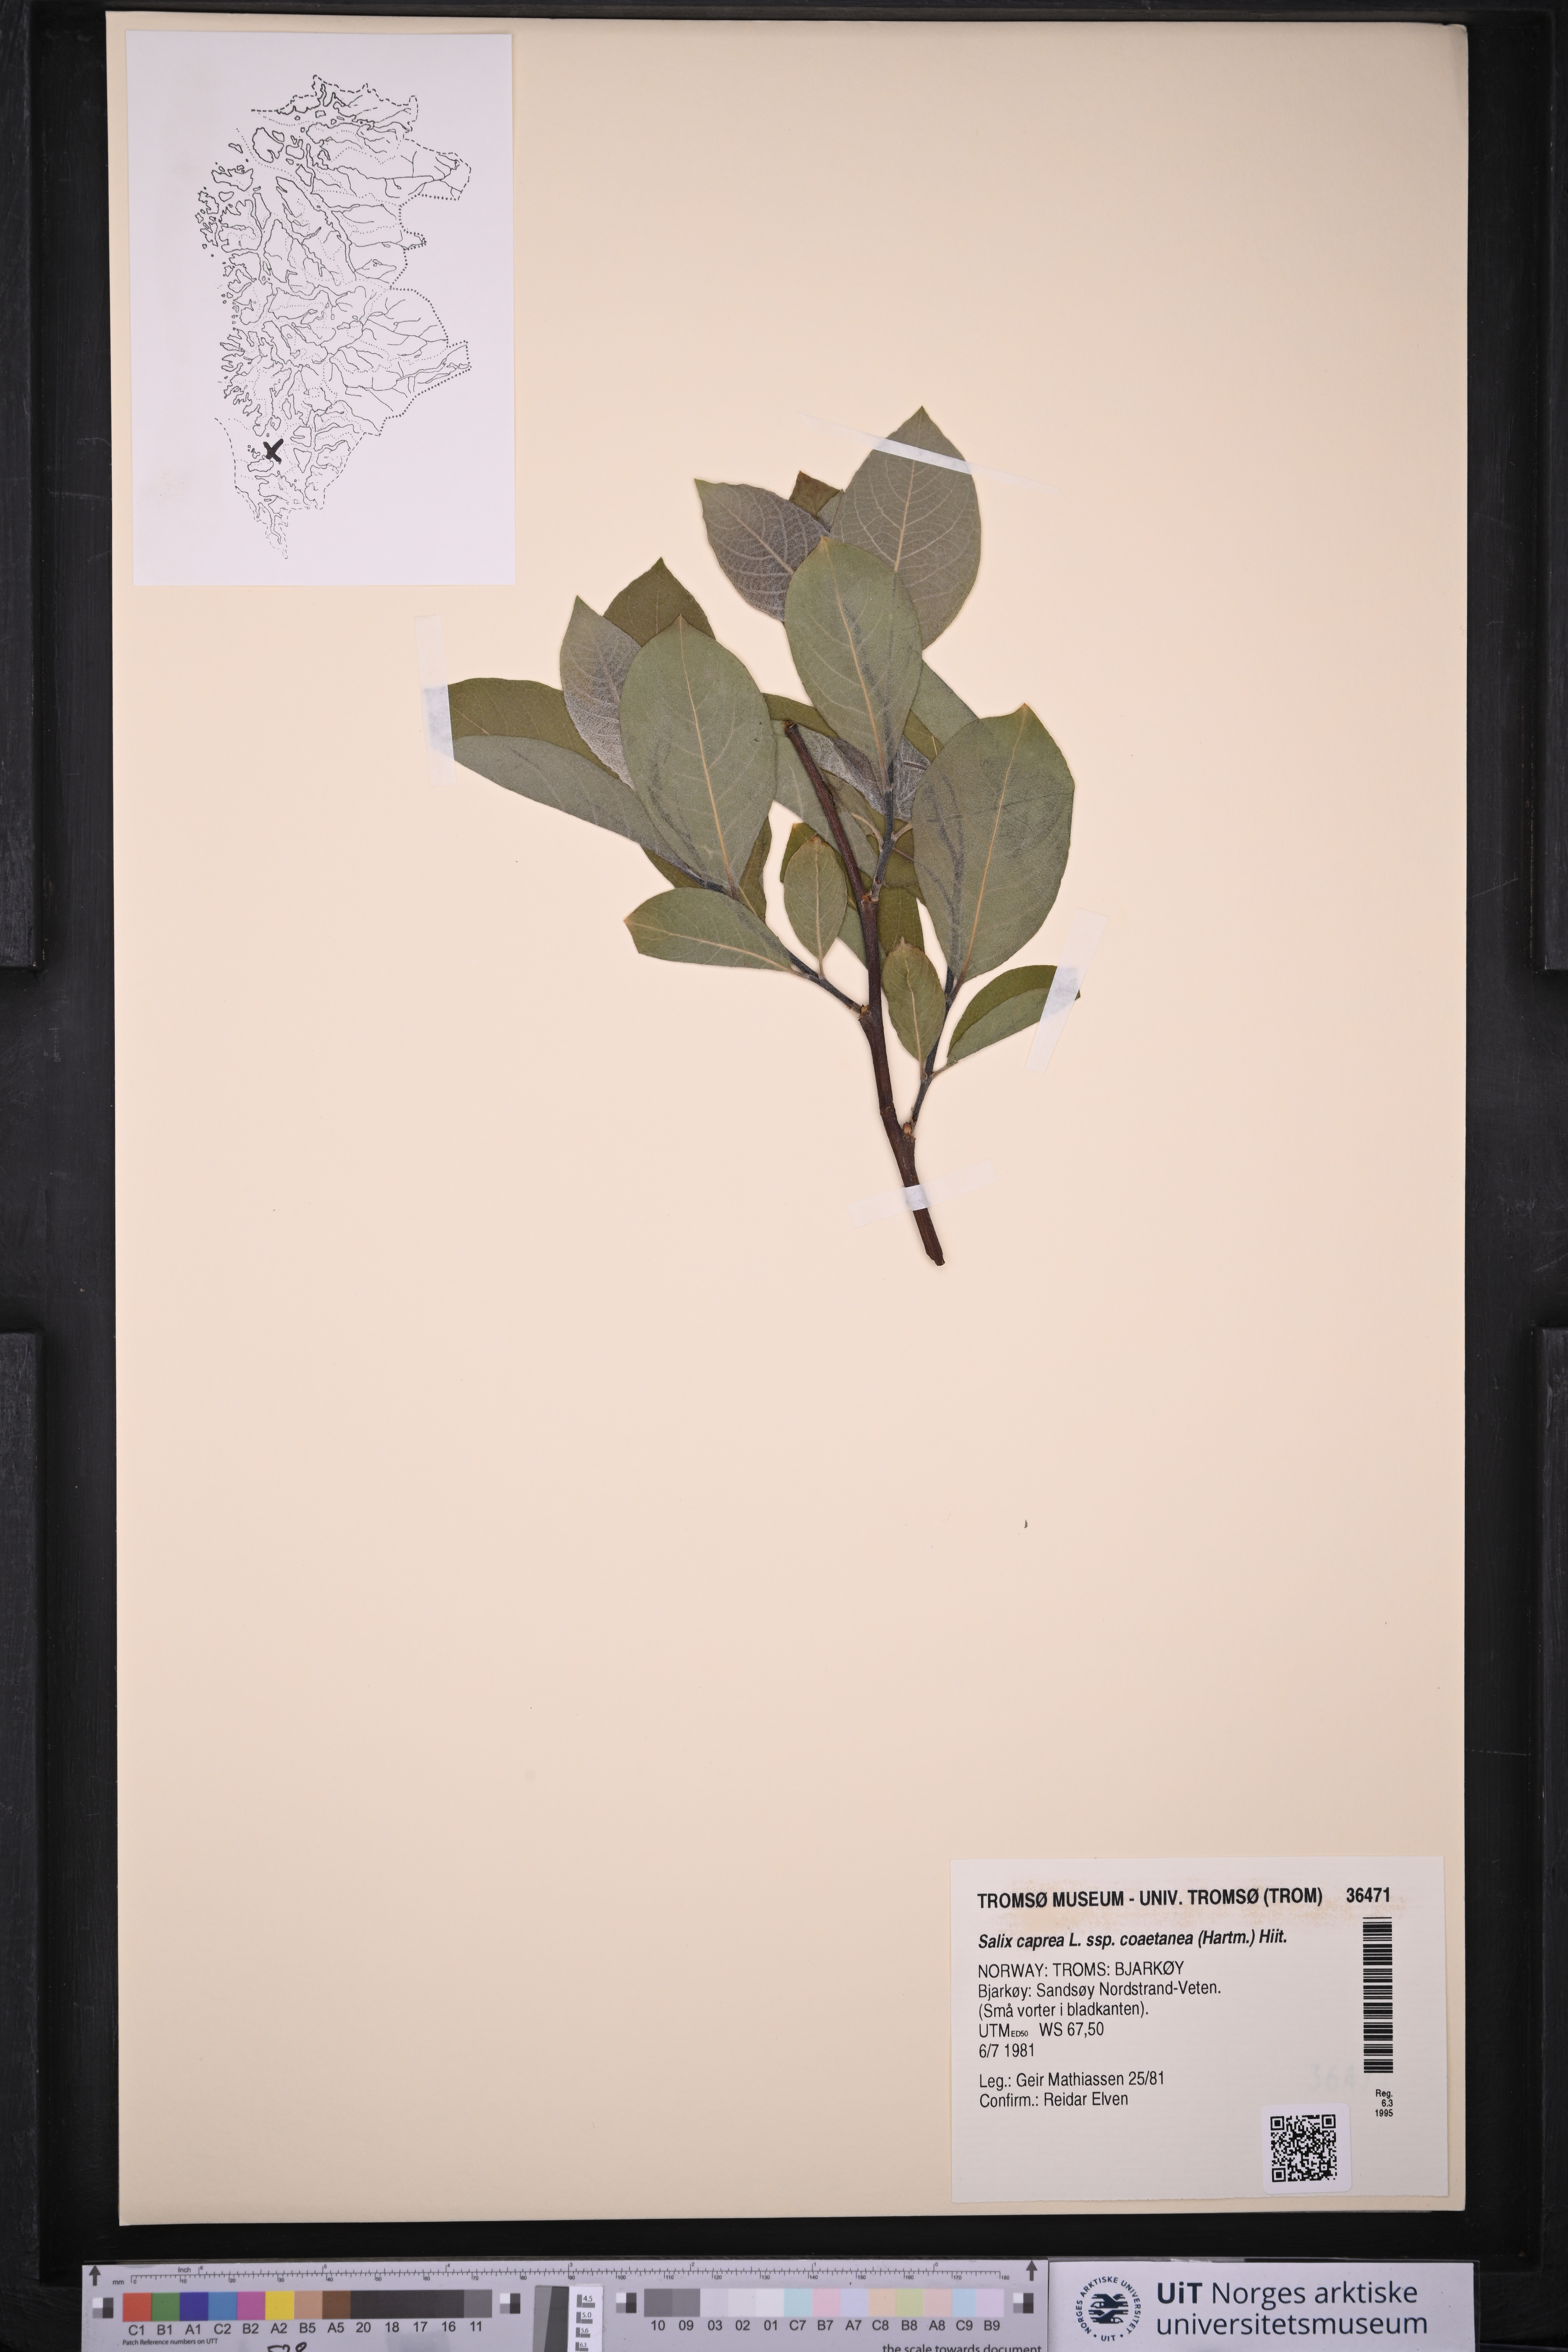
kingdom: Plantae
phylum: Tracheophyta
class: Magnoliopsida
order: Malpighiales
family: Salicaceae
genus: Salix
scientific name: Salix caprea
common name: Goat willow
